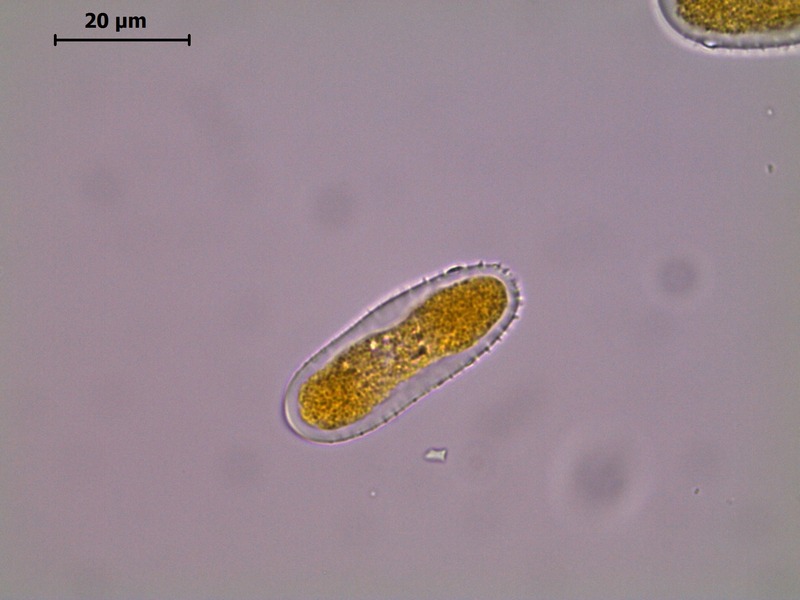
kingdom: Fungi
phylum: Basidiomycota
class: Pucciniomycetes
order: Pucciniales
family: Melampsoraceae
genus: Melampsora
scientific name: Melampsora laricis-populina
